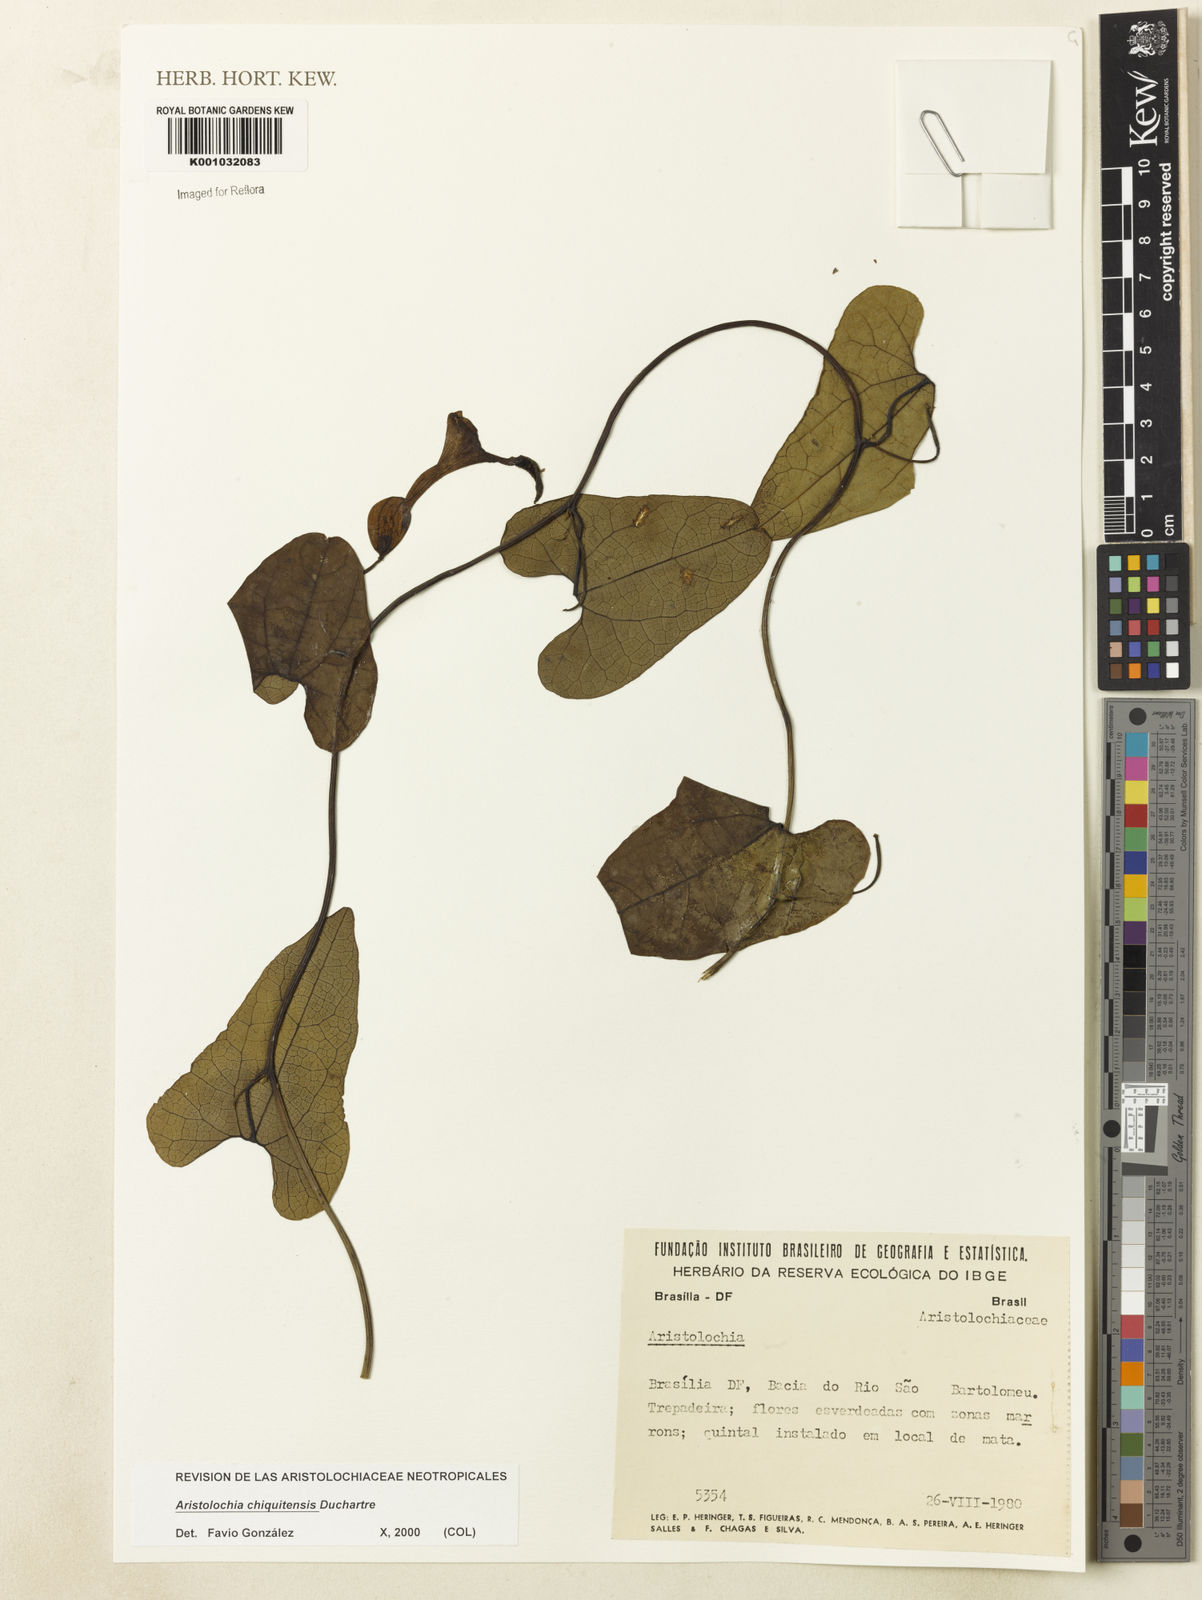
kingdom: Plantae
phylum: Tracheophyta
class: Magnoliopsida
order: Piperales
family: Aristolochiaceae
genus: Aristolochia
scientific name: Aristolochia chiquitensis
